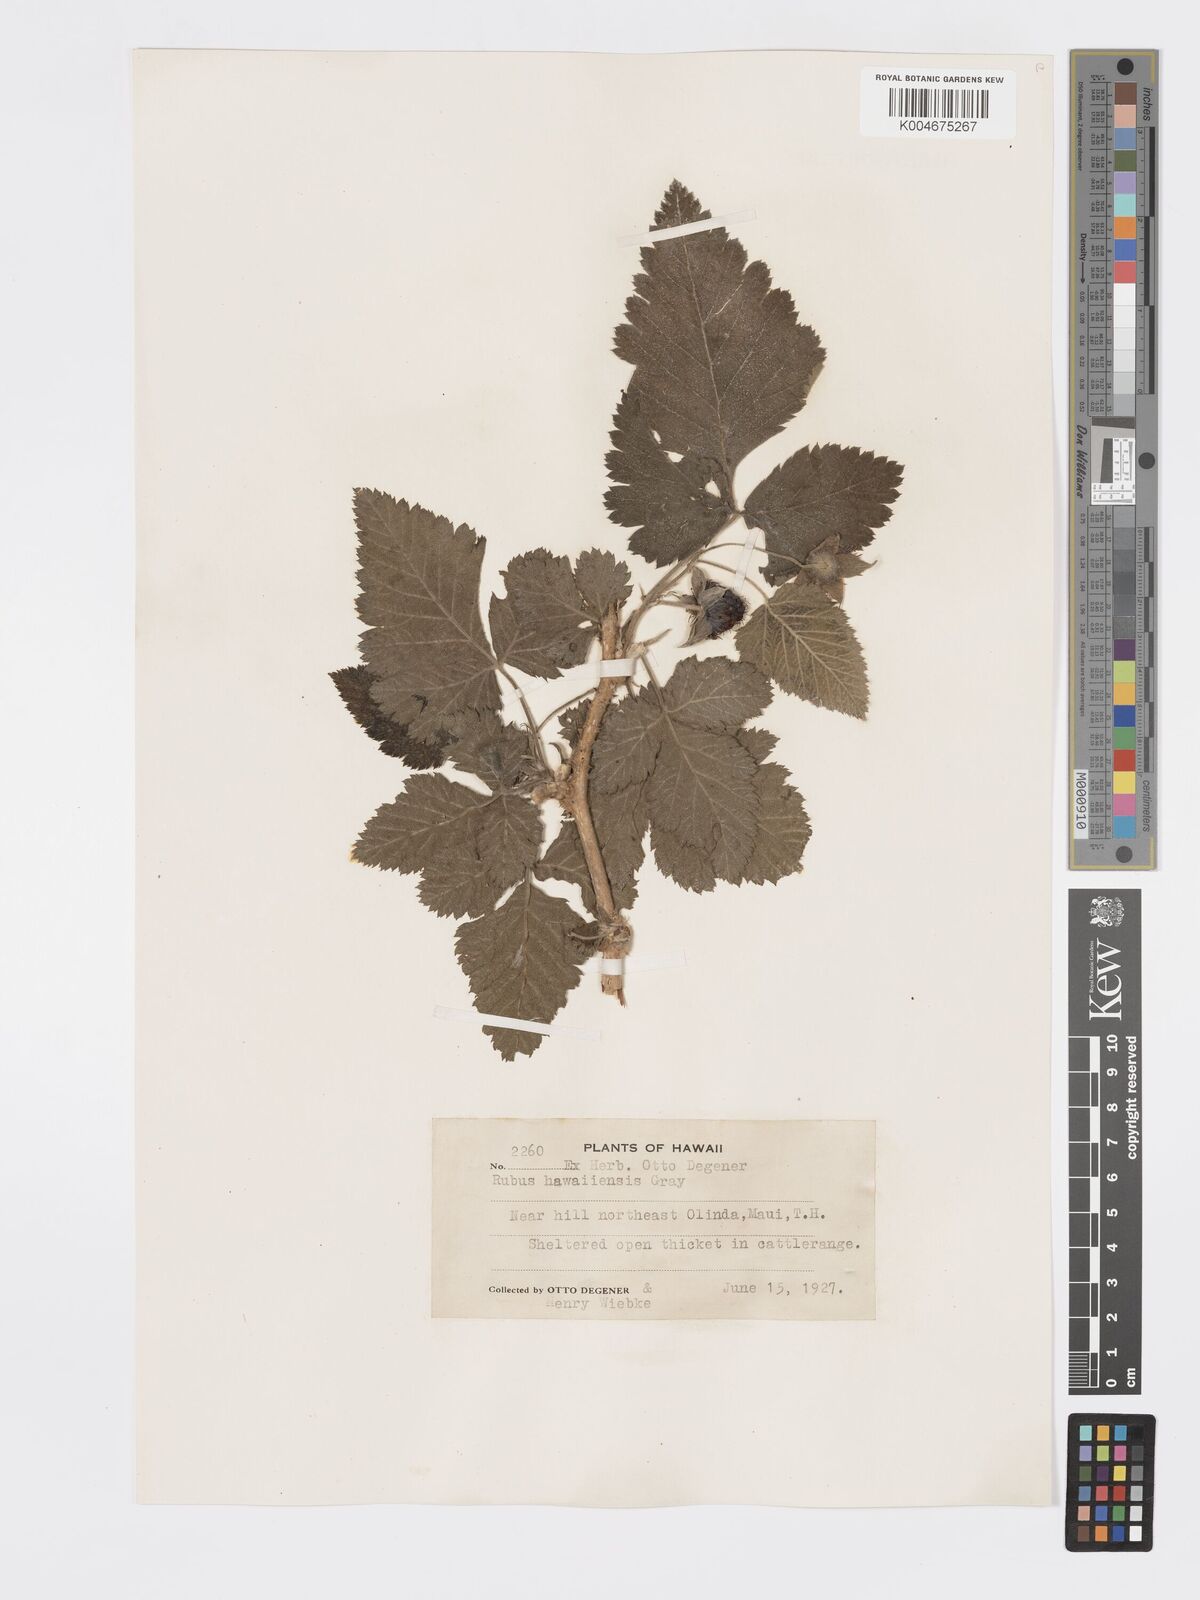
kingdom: Plantae
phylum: Tracheophyta
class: Magnoliopsida
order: Rosales
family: Rosaceae
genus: Rubus
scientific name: Rubus hawaiensis
